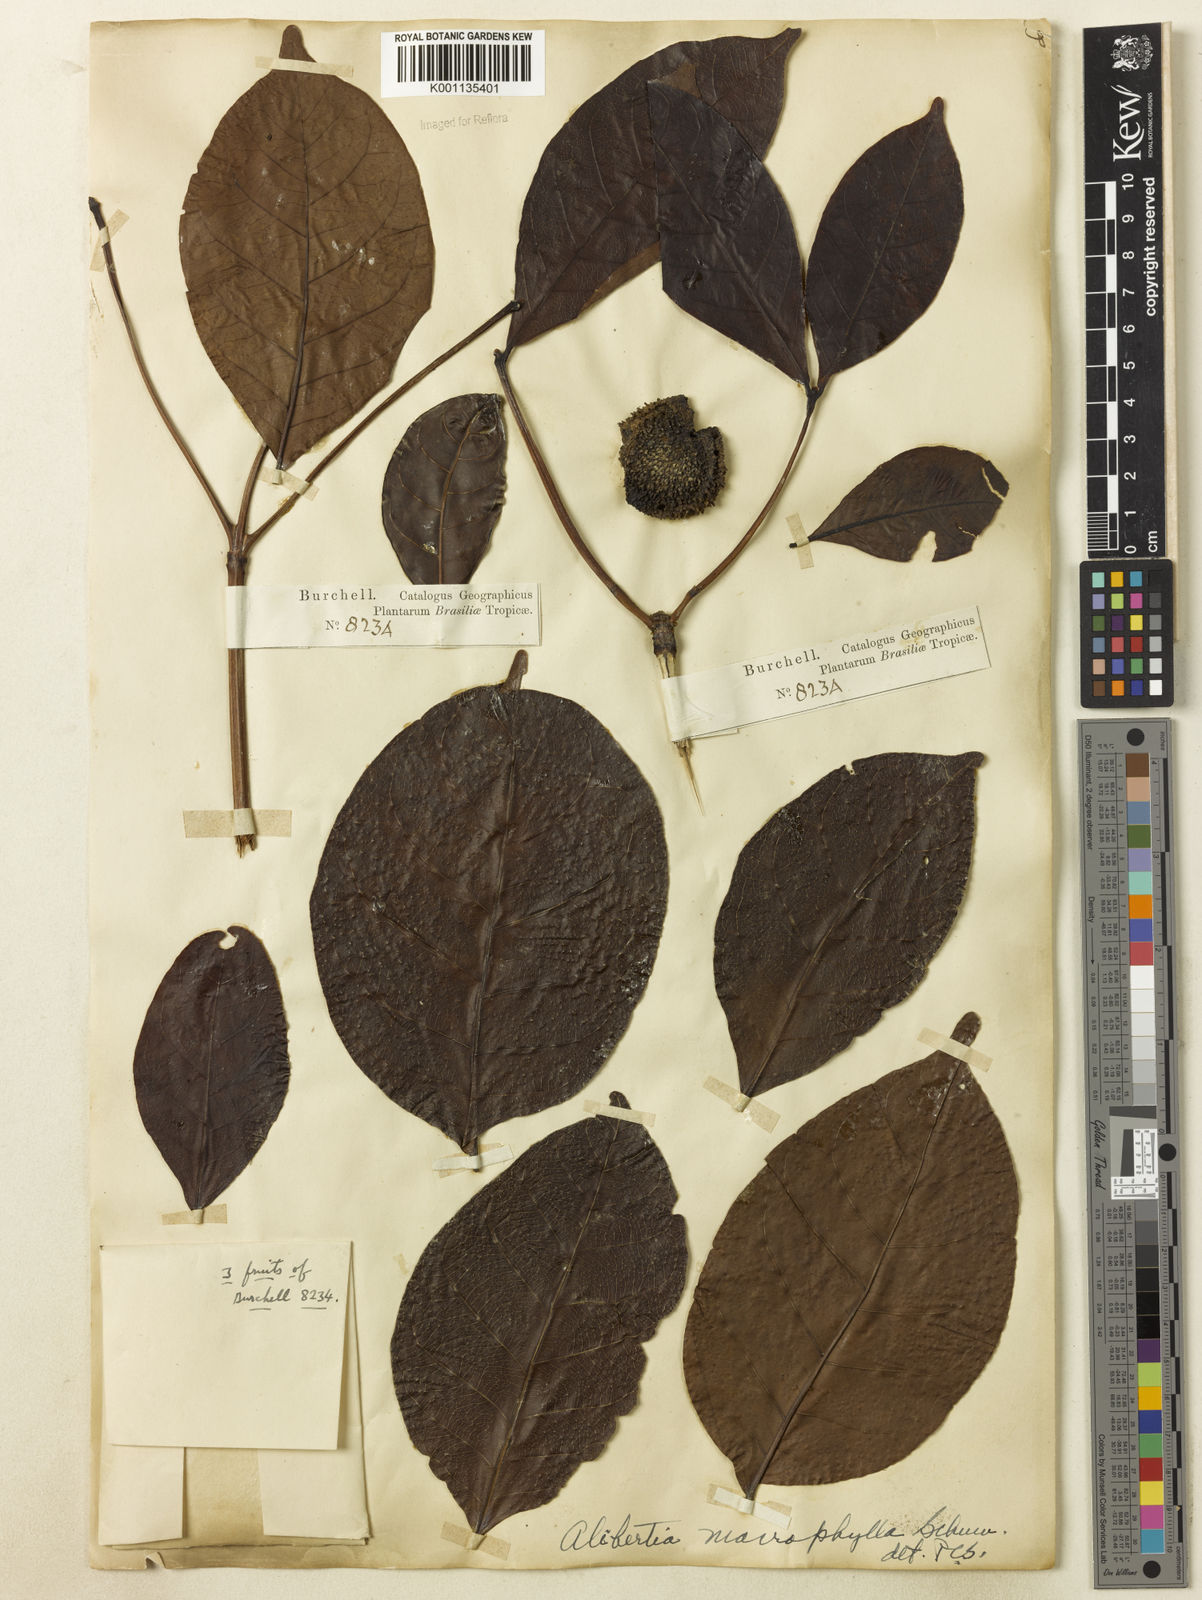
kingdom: Plantae
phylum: Tracheophyta
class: Magnoliopsida
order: Gentianales
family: Rubiaceae
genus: Cordiera
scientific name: Cordiera macrophylla
